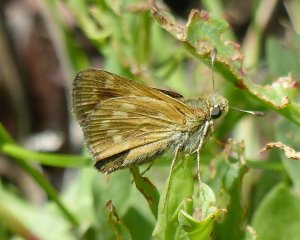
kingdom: Animalia
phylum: Arthropoda
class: Insecta
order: Lepidoptera
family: Hesperiidae
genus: Hesperia
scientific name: Hesperia sassacus
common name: Sassacus Skipper
